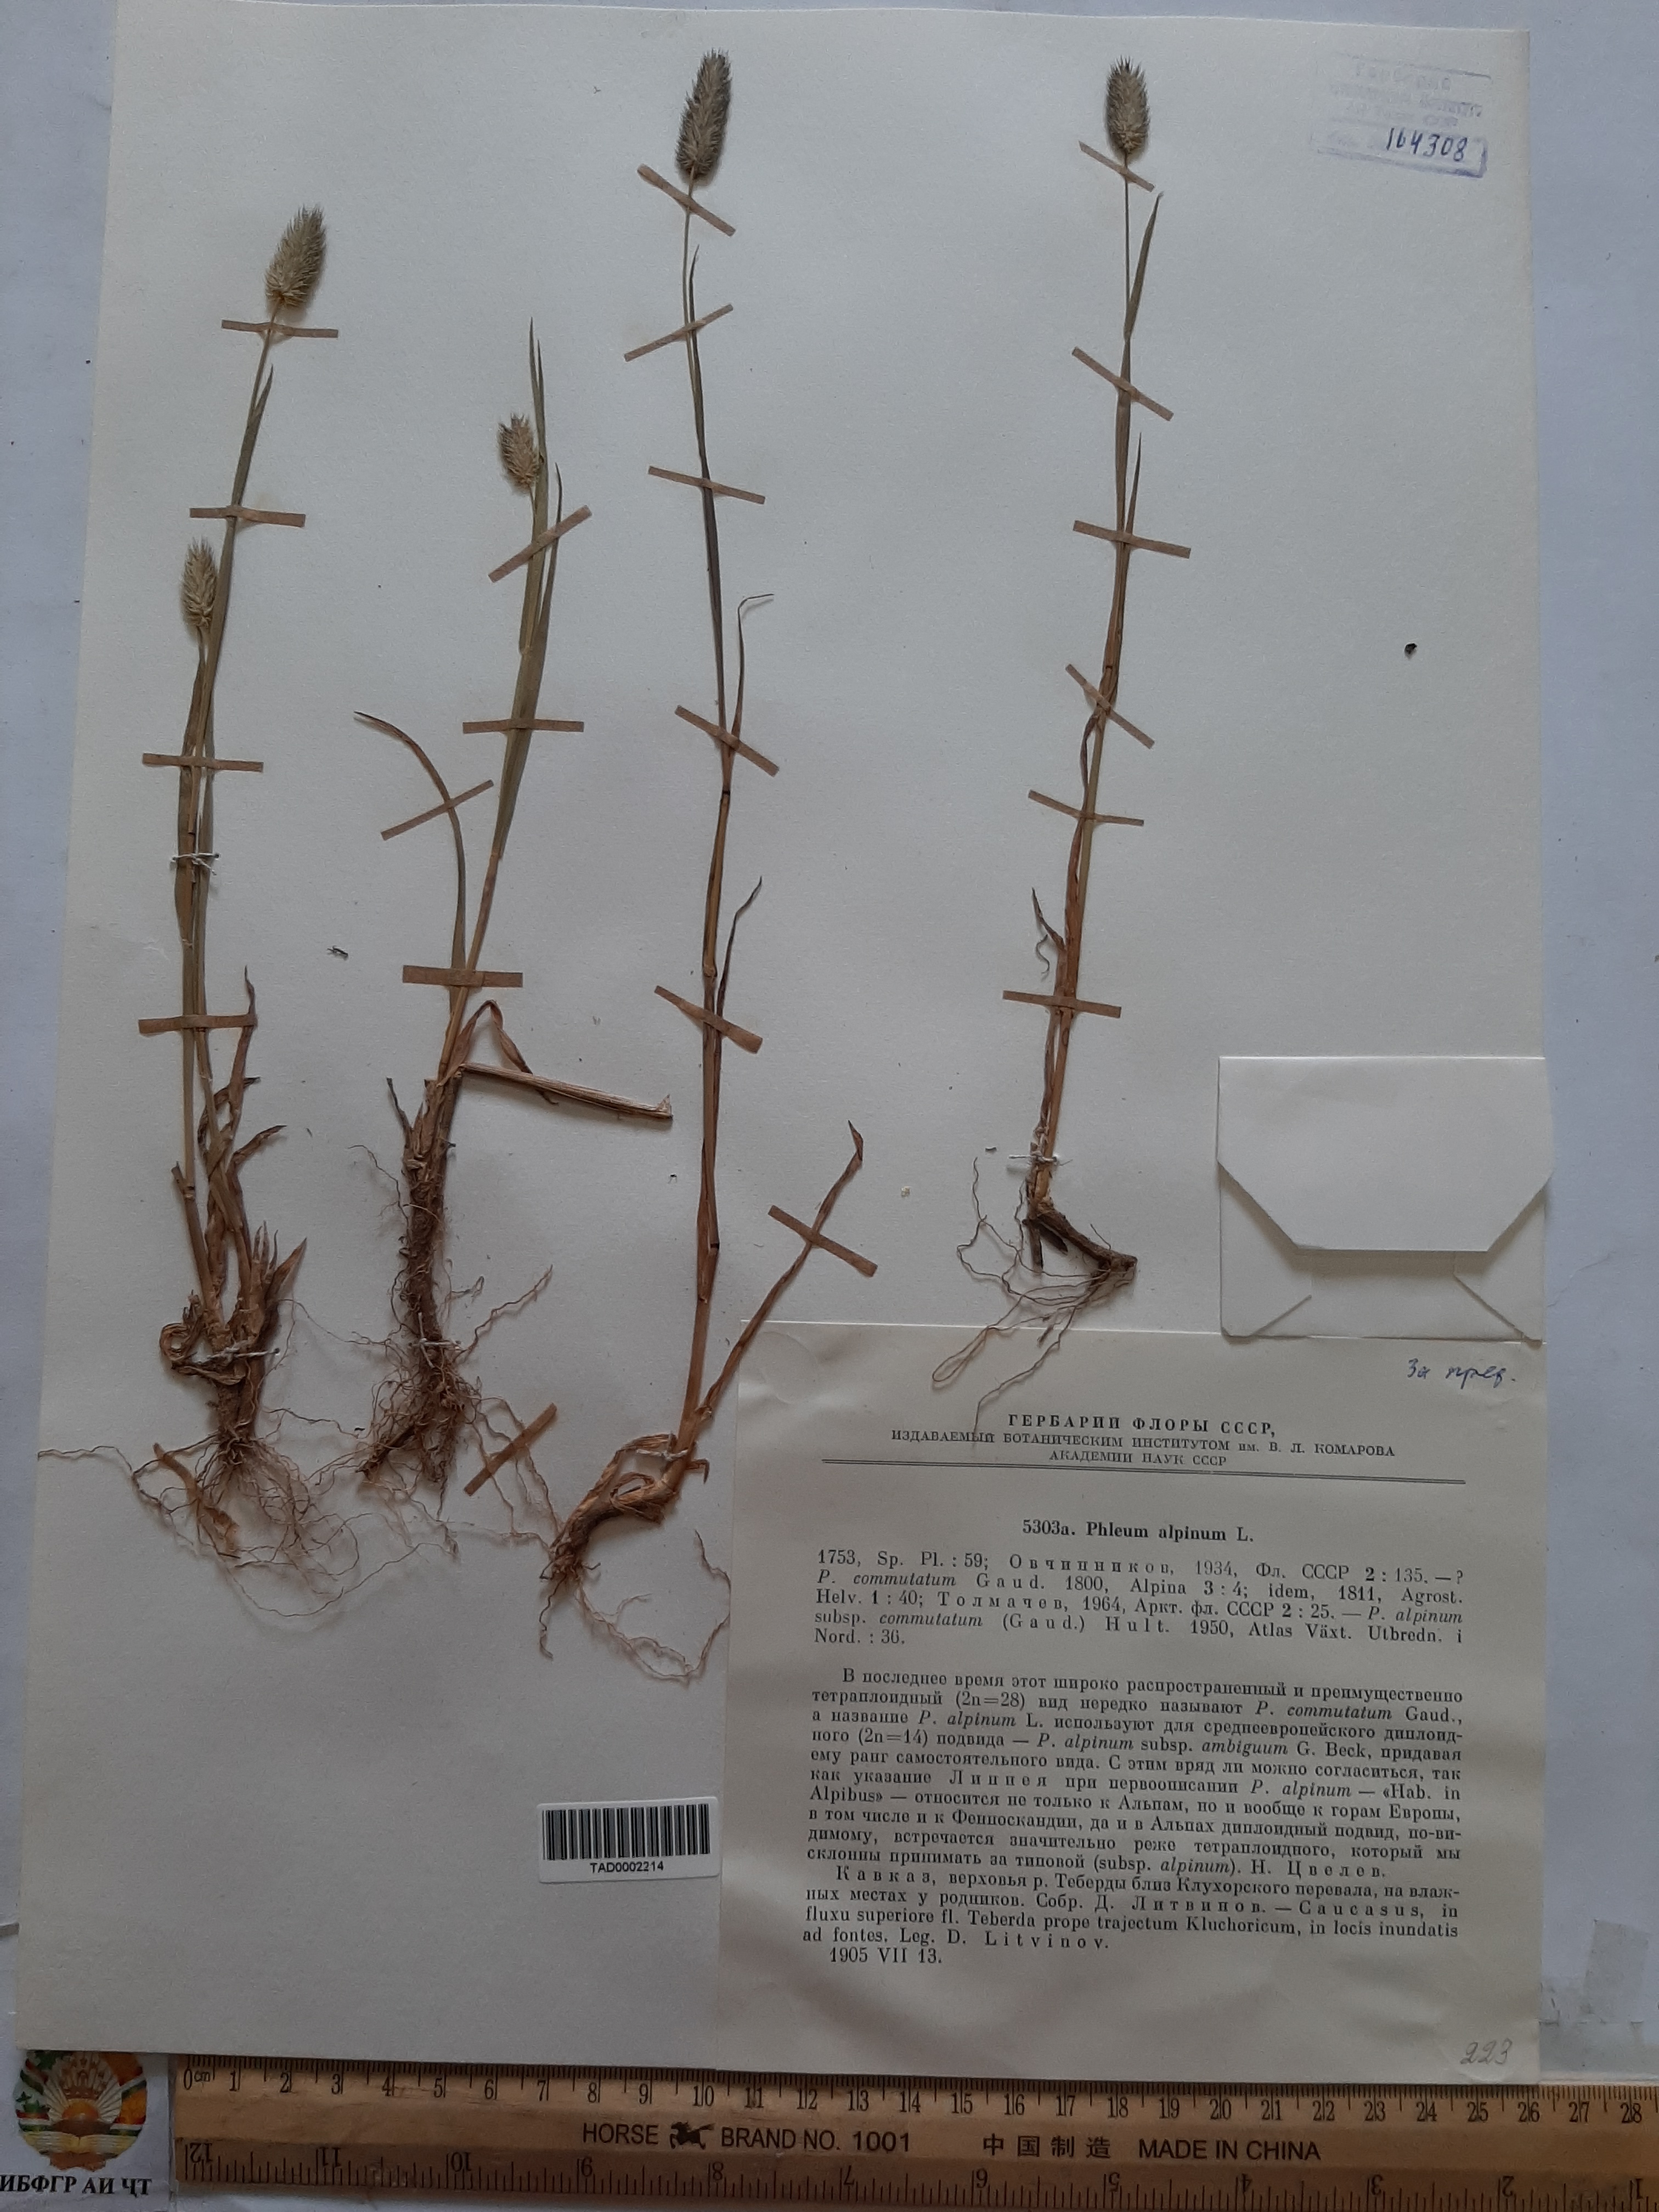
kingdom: Plantae
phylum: Tracheophyta
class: Liliopsida
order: Poales
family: Poaceae
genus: Phleum
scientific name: Phleum alpinum
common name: Alpine cat's-tail
